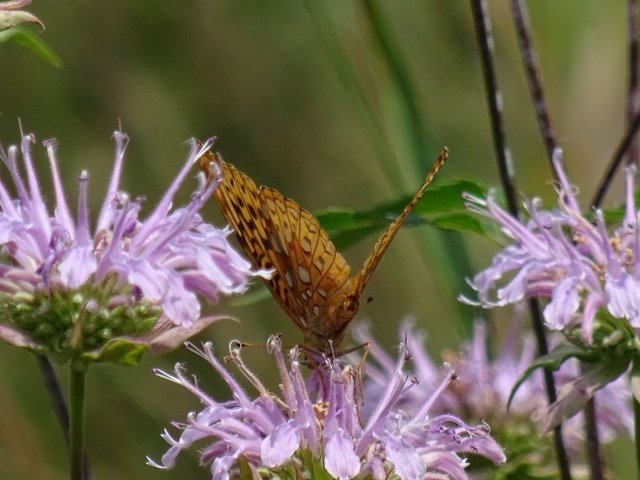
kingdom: Animalia
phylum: Arthropoda
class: Insecta
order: Lepidoptera
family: Nymphalidae
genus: Speyeria
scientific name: Speyeria cybele
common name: Great Spangled Fritillary
